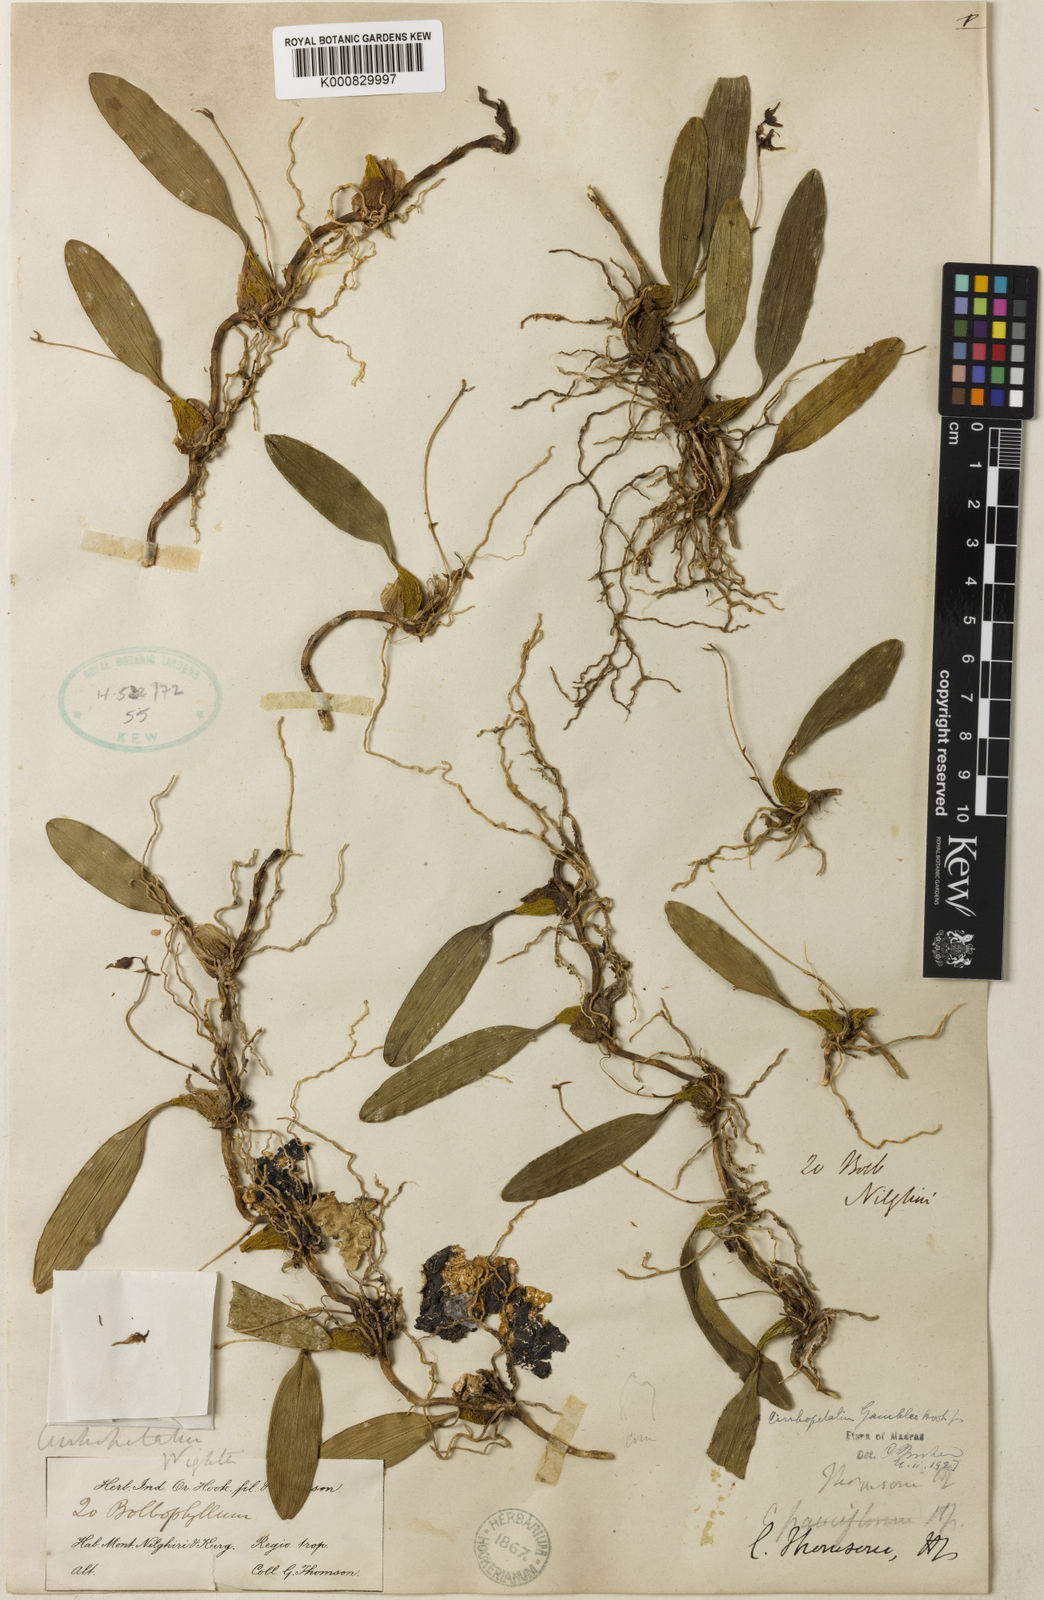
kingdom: Plantae
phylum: Tracheophyta
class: Liliopsida
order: Asparagales
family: Orchidaceae
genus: Bulbophyllum
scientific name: Bulbophyllum fischeri
